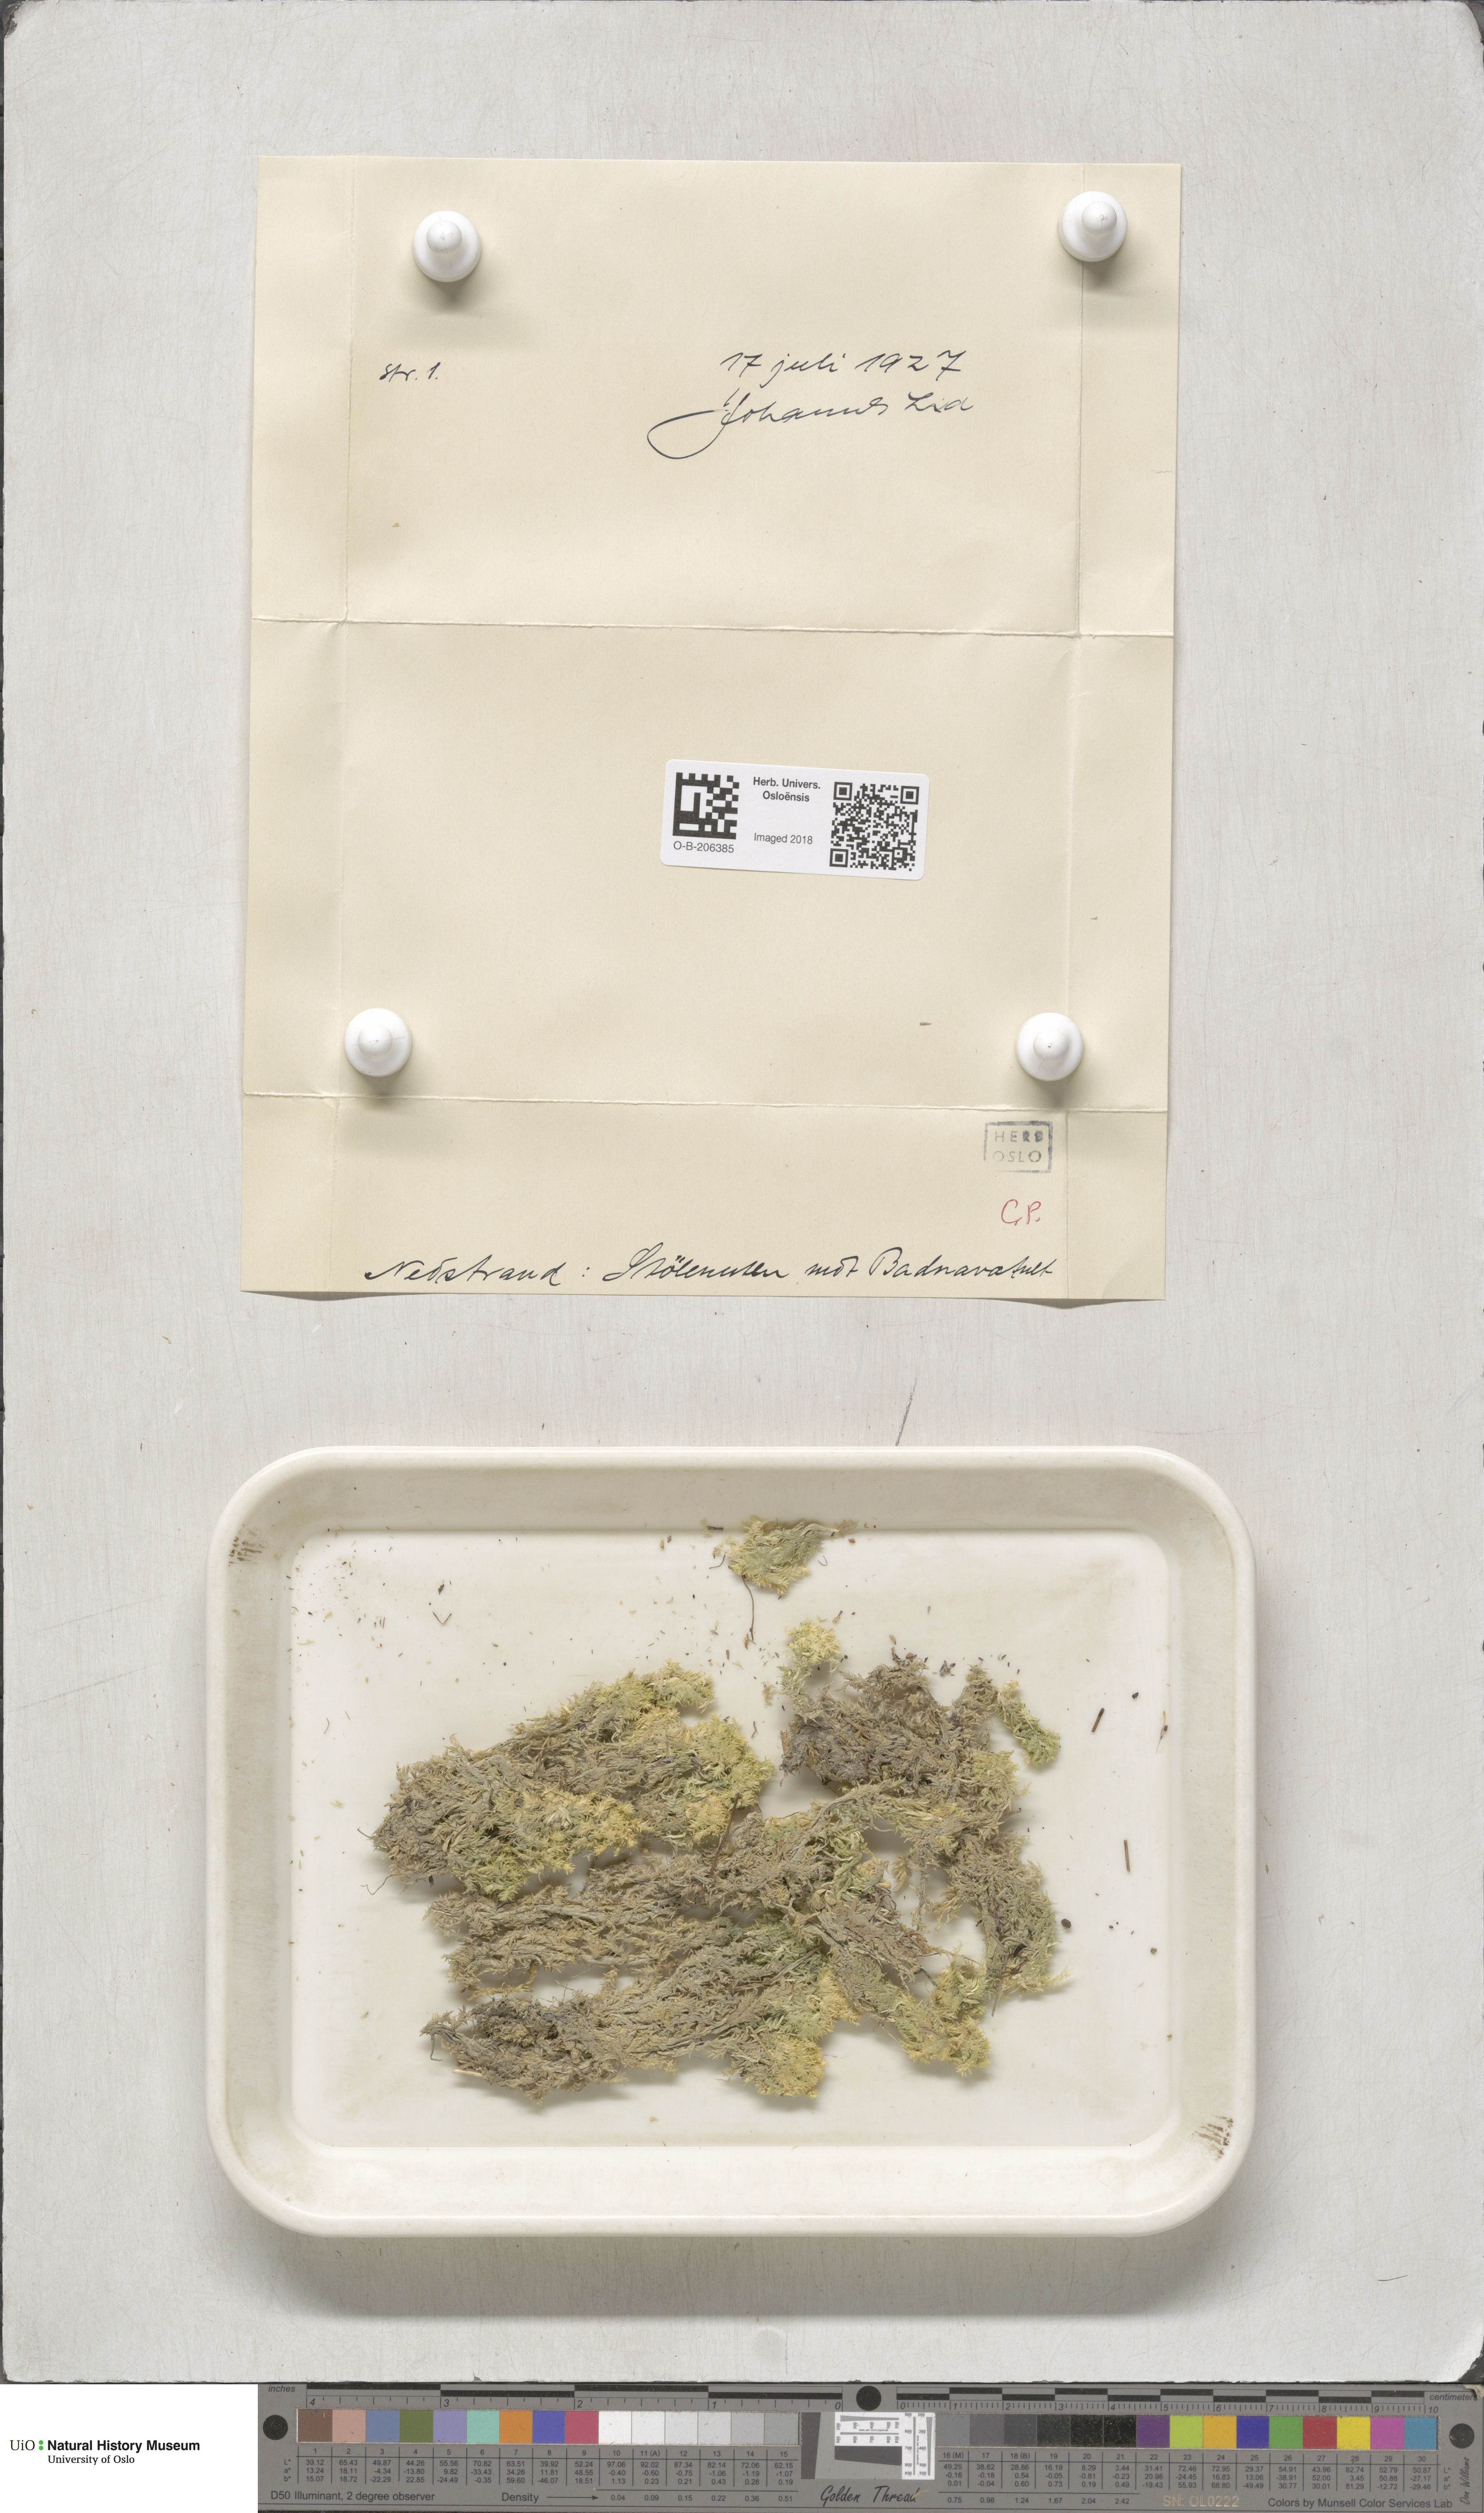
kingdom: Plantae
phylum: Bryophyta
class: Sphagnopsida
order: Sphagnales
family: Sphagnaceae
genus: Sphagnum
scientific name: Sphagnum strictum
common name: Pale bog-moss
